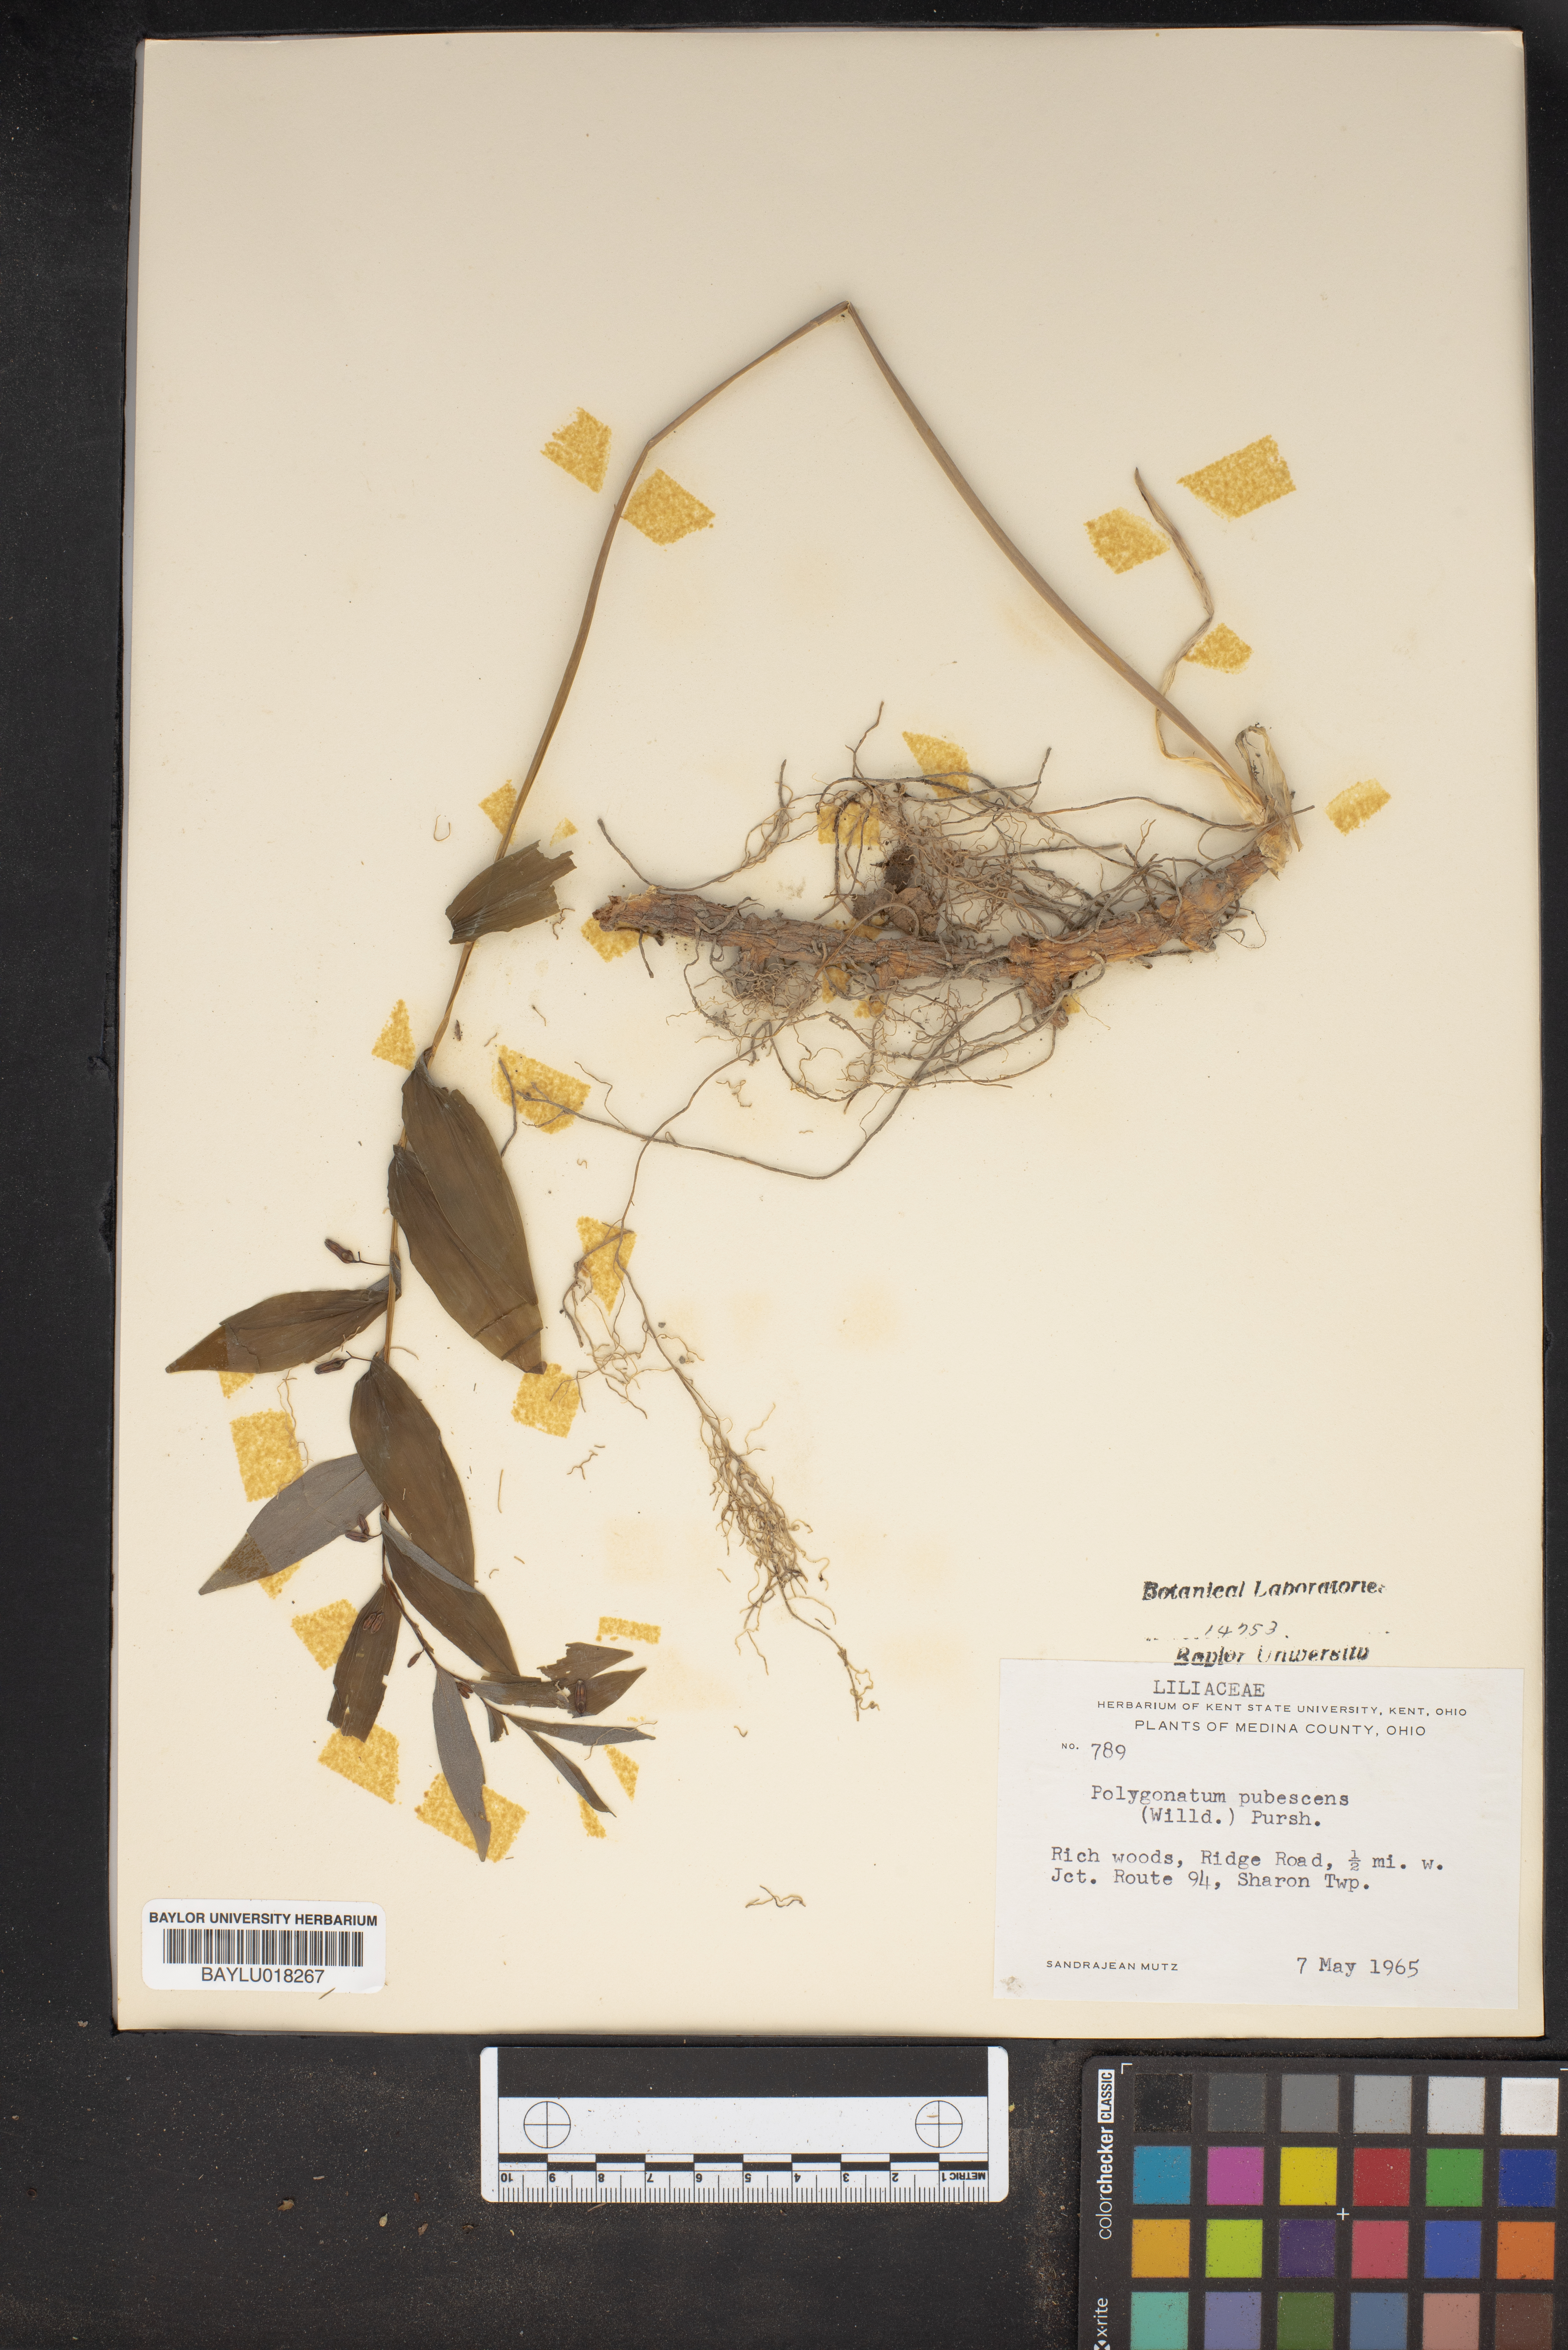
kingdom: Plantae
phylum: Tracheophyta
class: Liliopsida
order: Asparagales
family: Asparagaceae
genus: Polygonatum
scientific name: Polygonatum pubescens
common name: Downy solomon's seal
